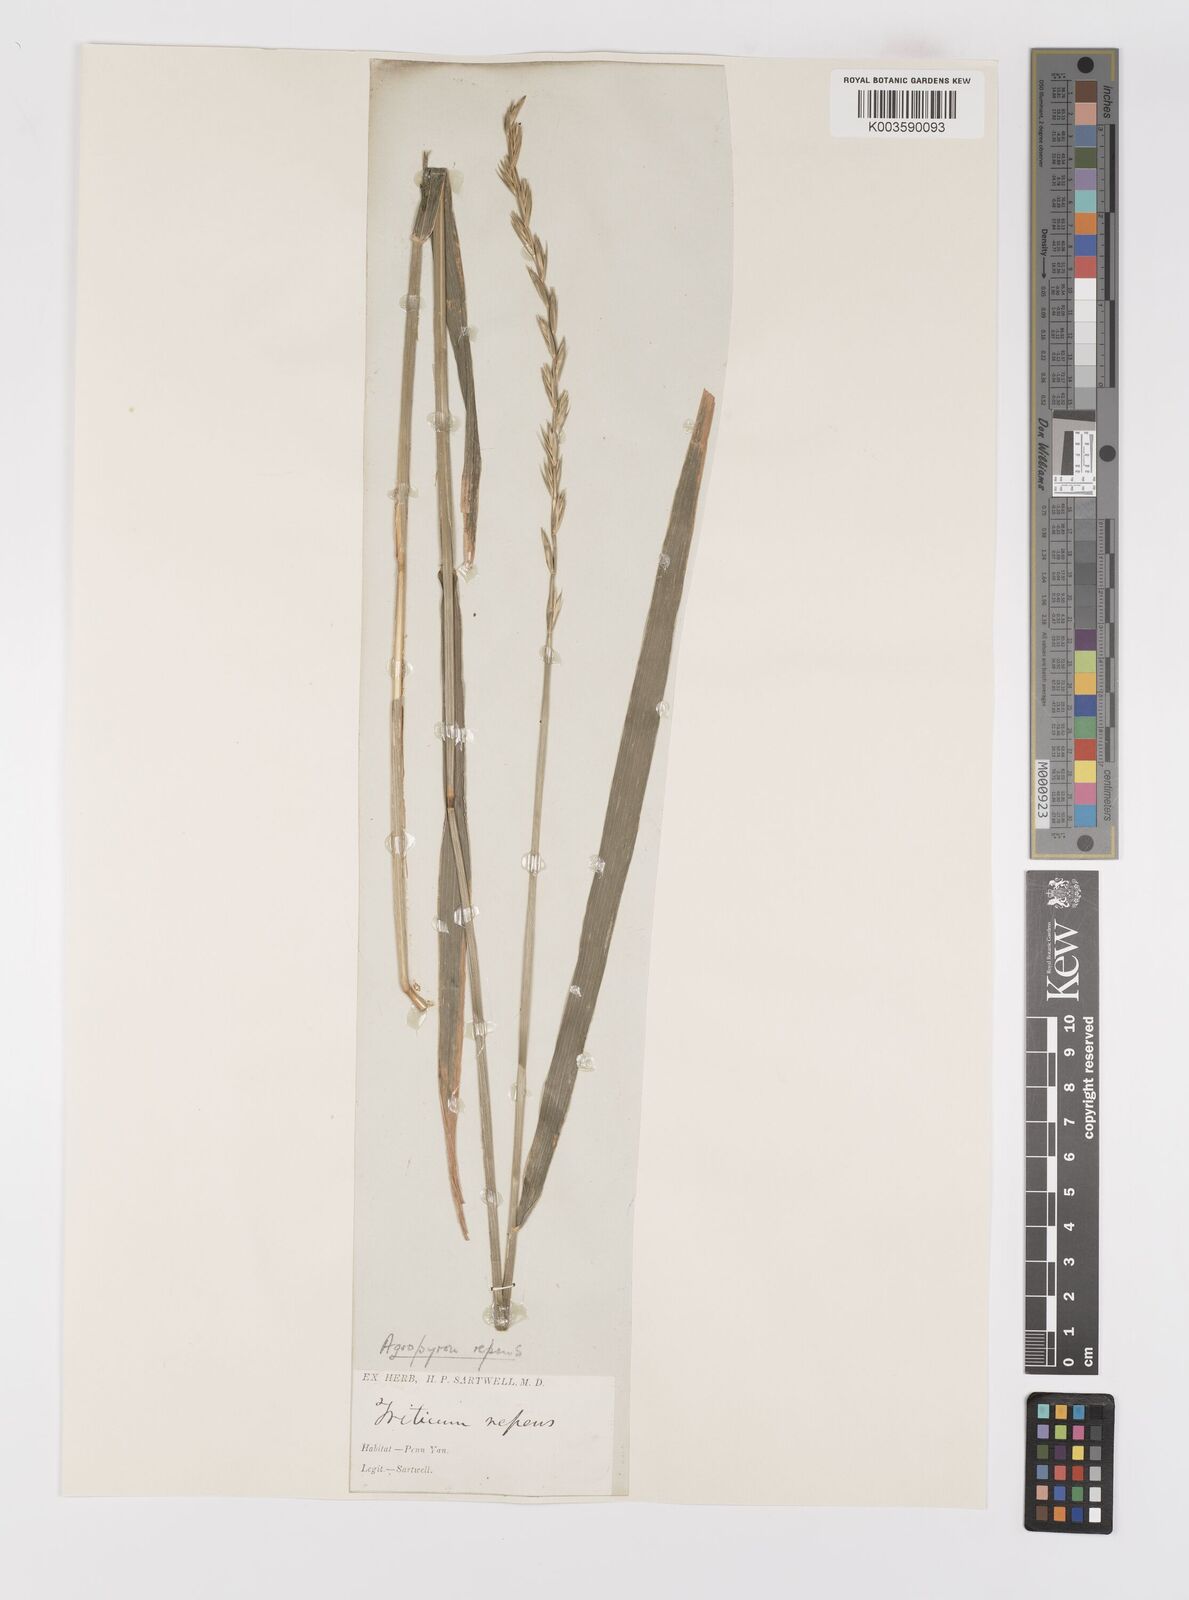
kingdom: Plantae
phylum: Tracheophyta
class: Liliopsida
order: Poales
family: Poaceae
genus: Elymus
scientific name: Elymus repens
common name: Quackgrass
